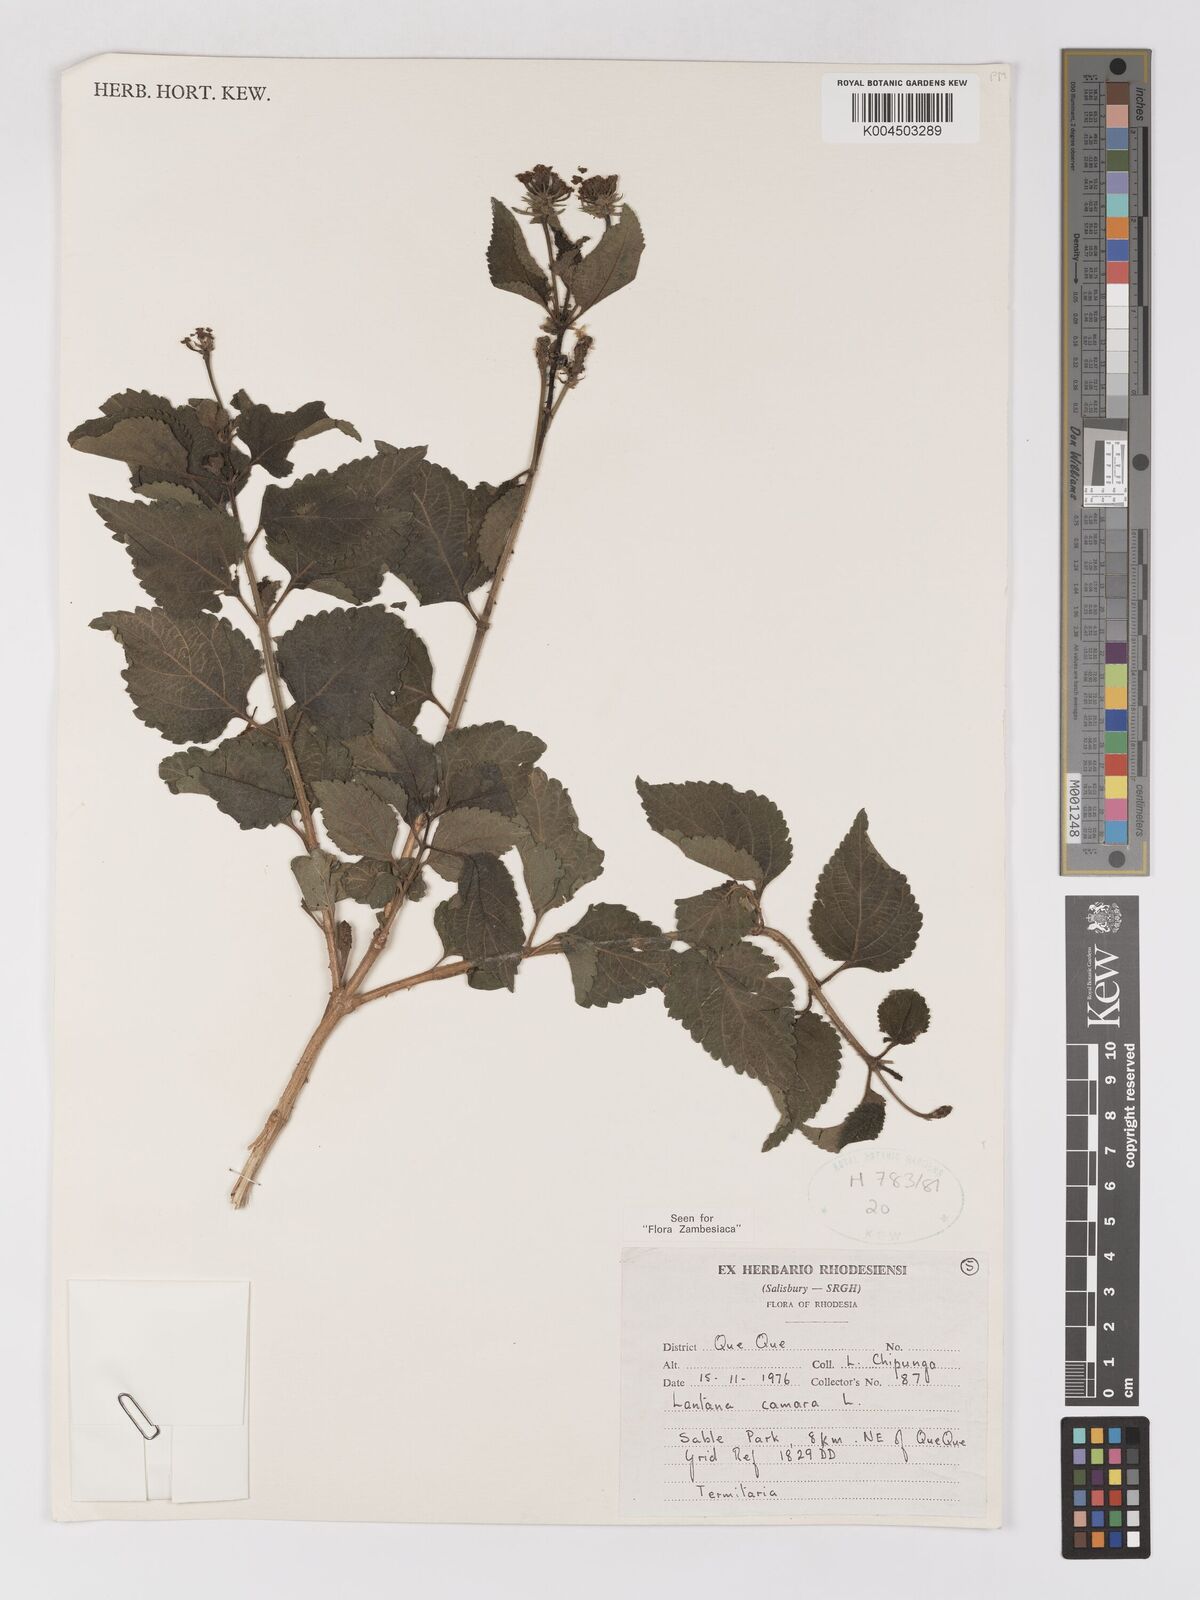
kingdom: Plantae
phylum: Tracheophyta
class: Magnoliopsida
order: Lamiales
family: Verbenaceae
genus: Lantana
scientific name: Lantana camara
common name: Lantana
